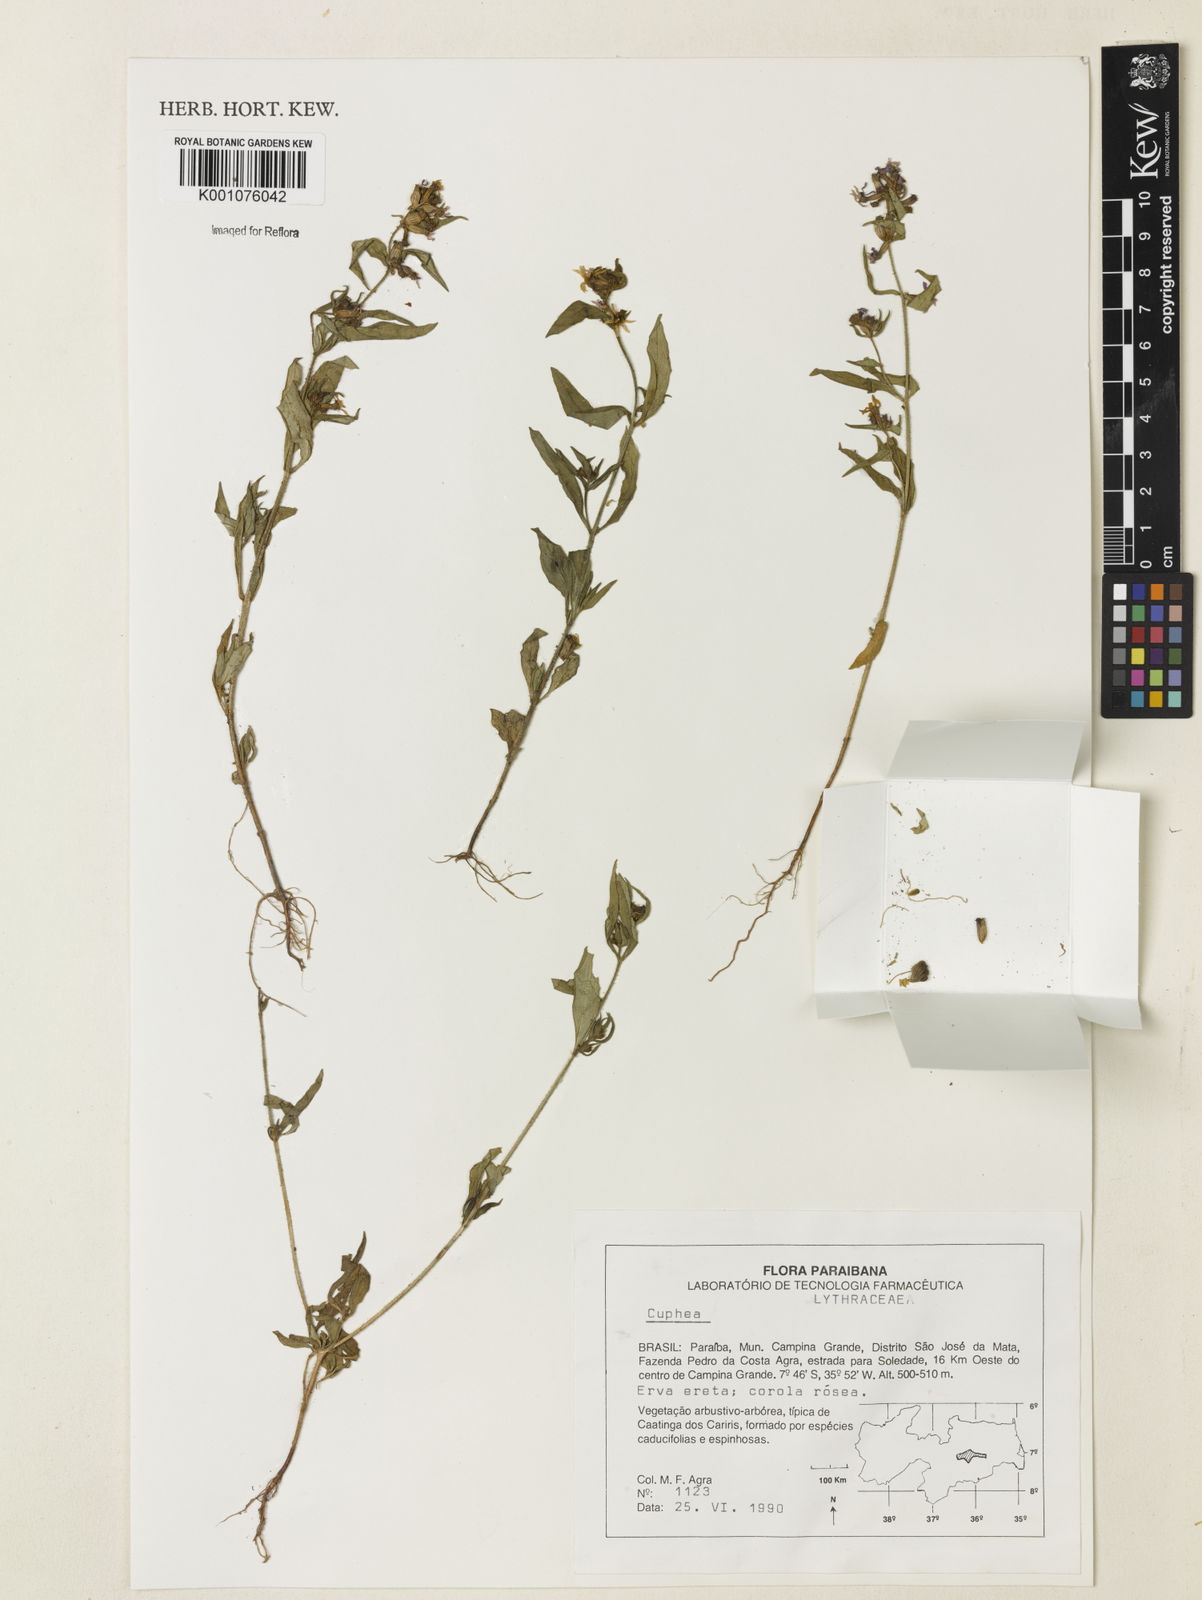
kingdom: Plantae
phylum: Tracheophyta
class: Magnoliopsida
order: Myrtales
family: Lythraceae
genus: Cuphea
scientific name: Cuphea
